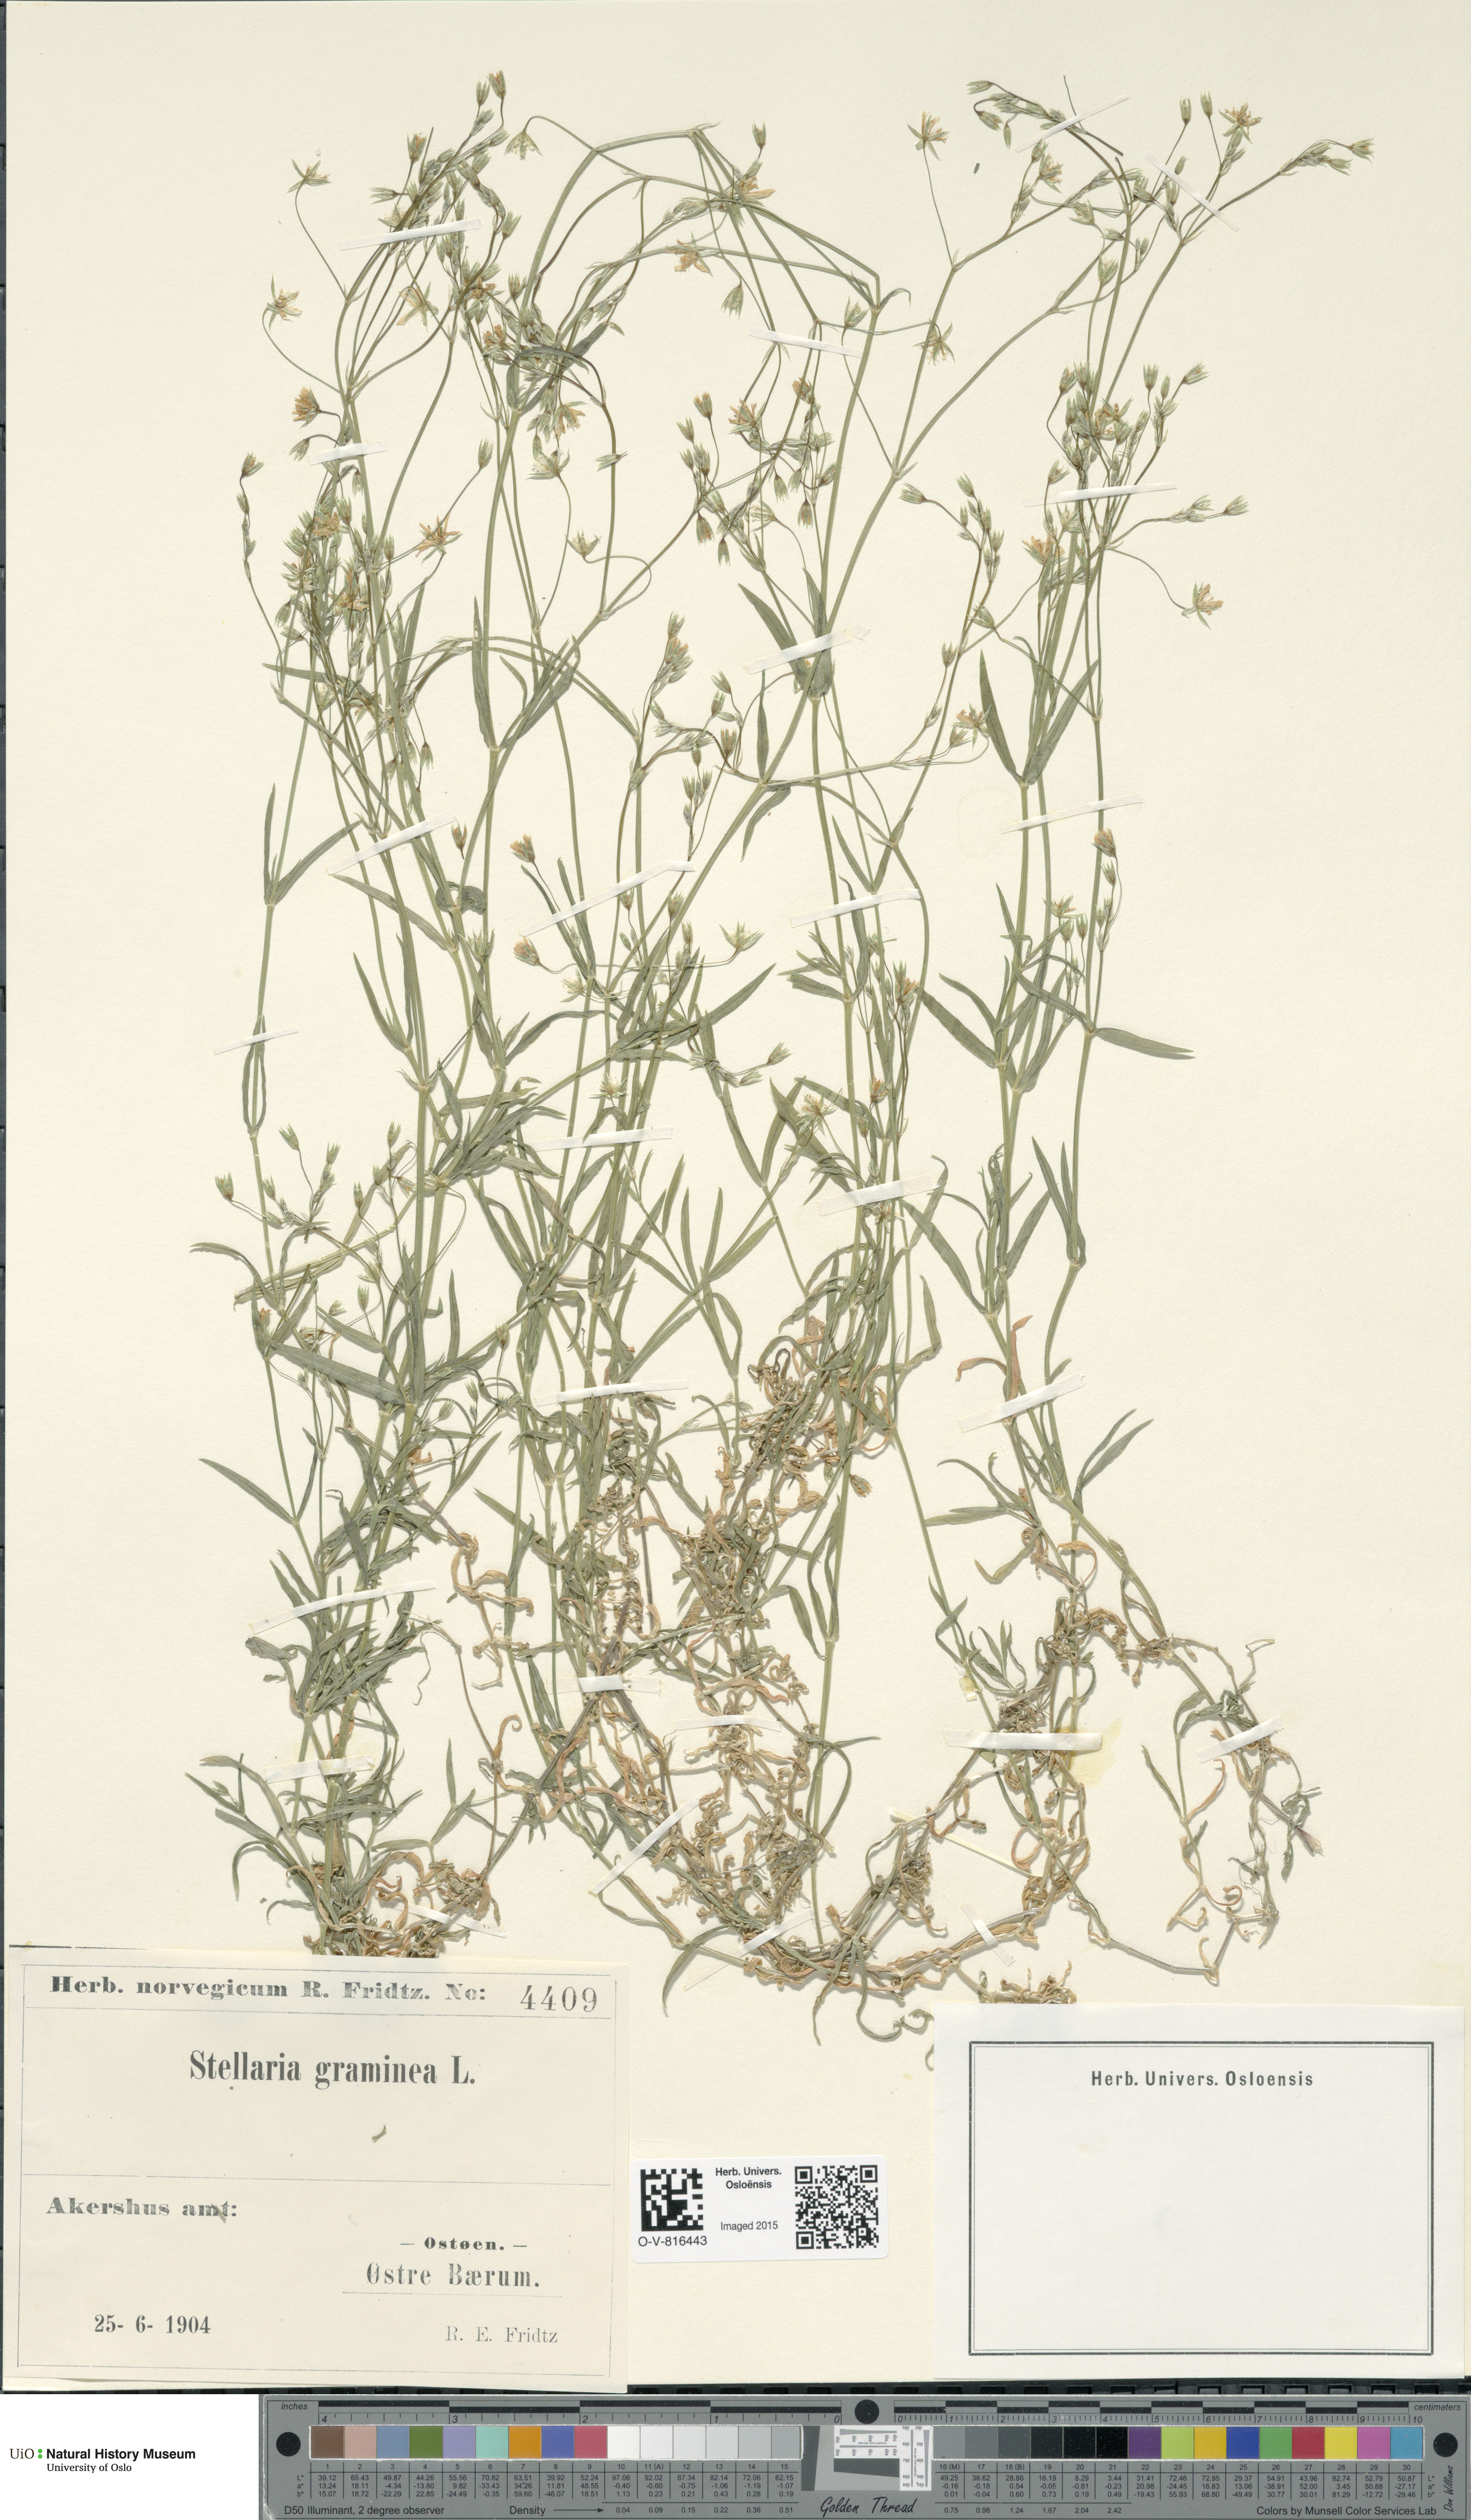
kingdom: Plantae
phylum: Tracheophyta
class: Magnoliopsida
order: Caryophyllales
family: Caryophyllaceae
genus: Stellaria
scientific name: Stellaria graminea
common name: Grass-like starwort
